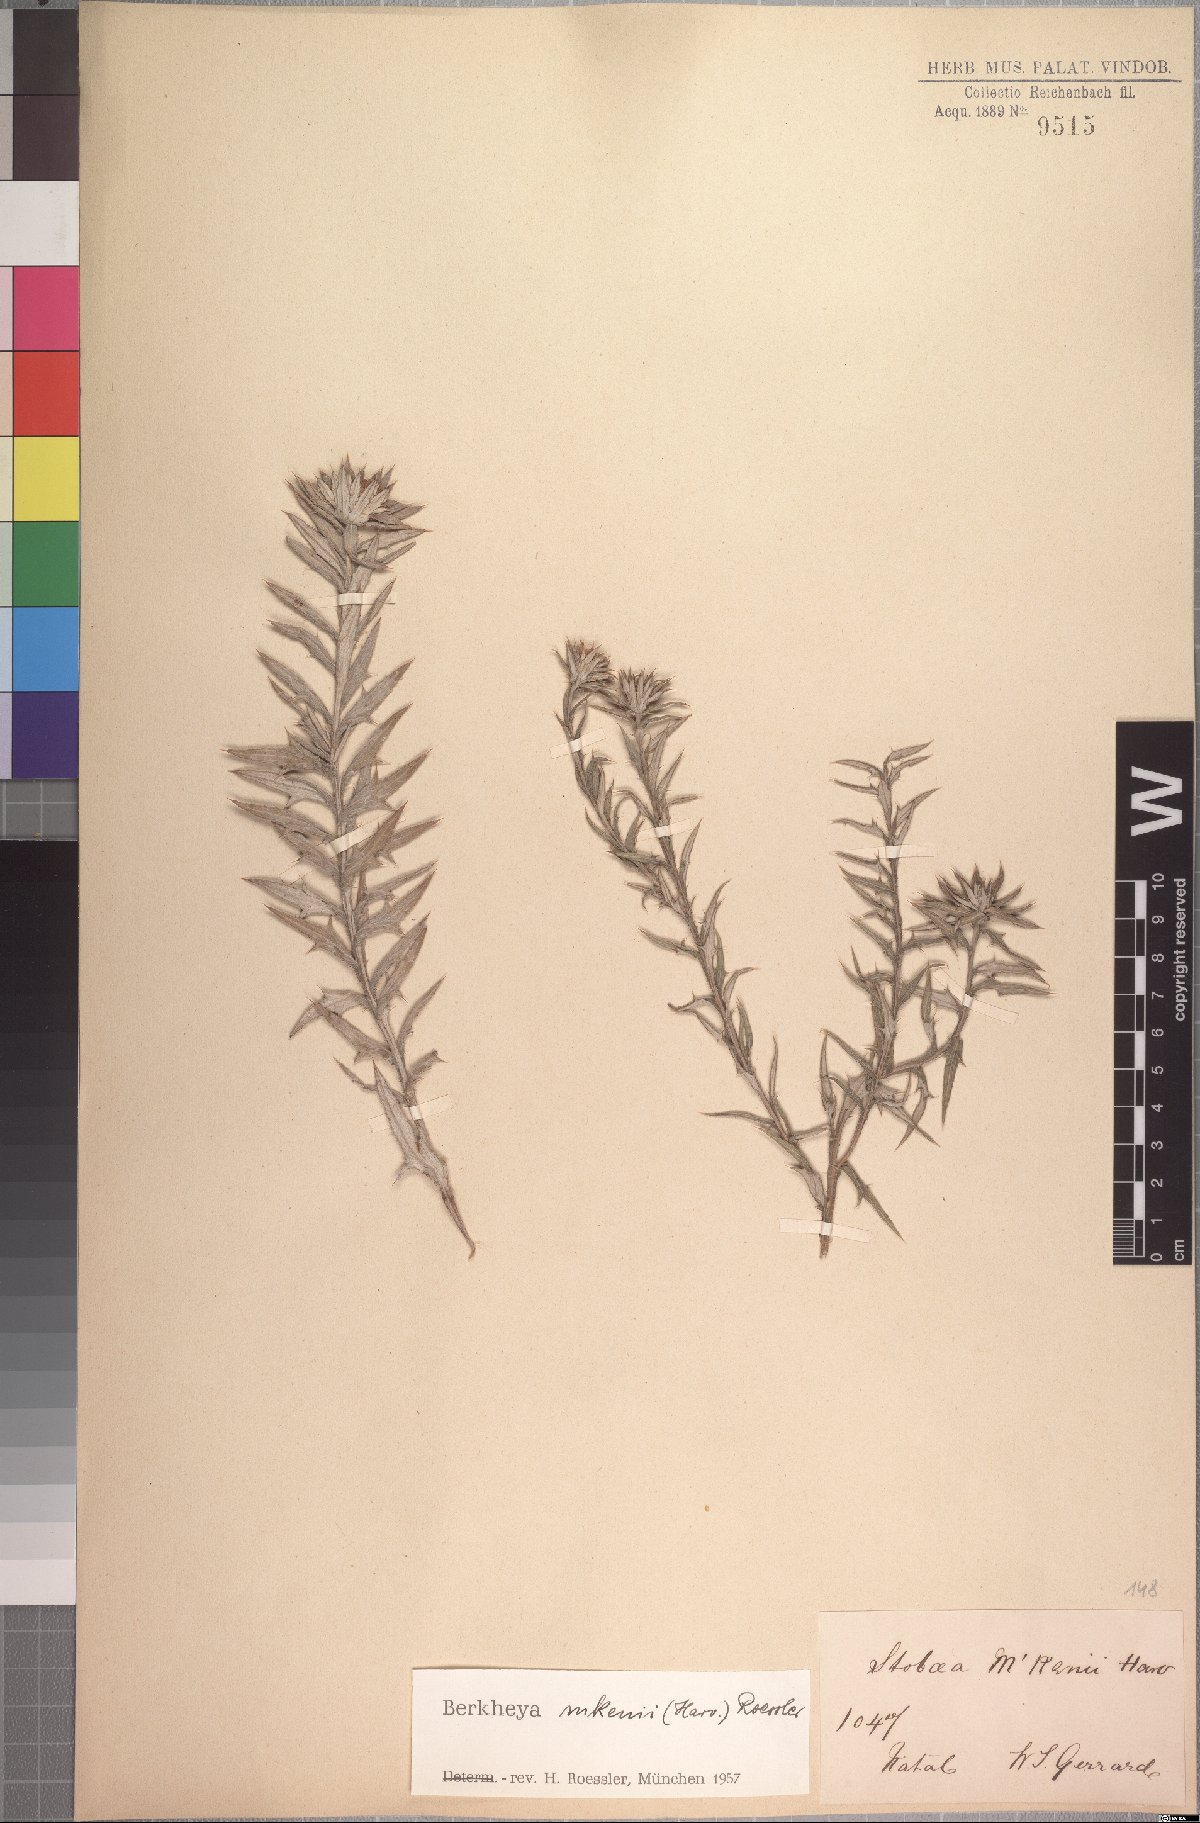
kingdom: Plantae
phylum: Tracheophyta
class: Magnoliopsida
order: Asterales
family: Asteraceae
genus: Berkheya
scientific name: Berkheya mackenii
